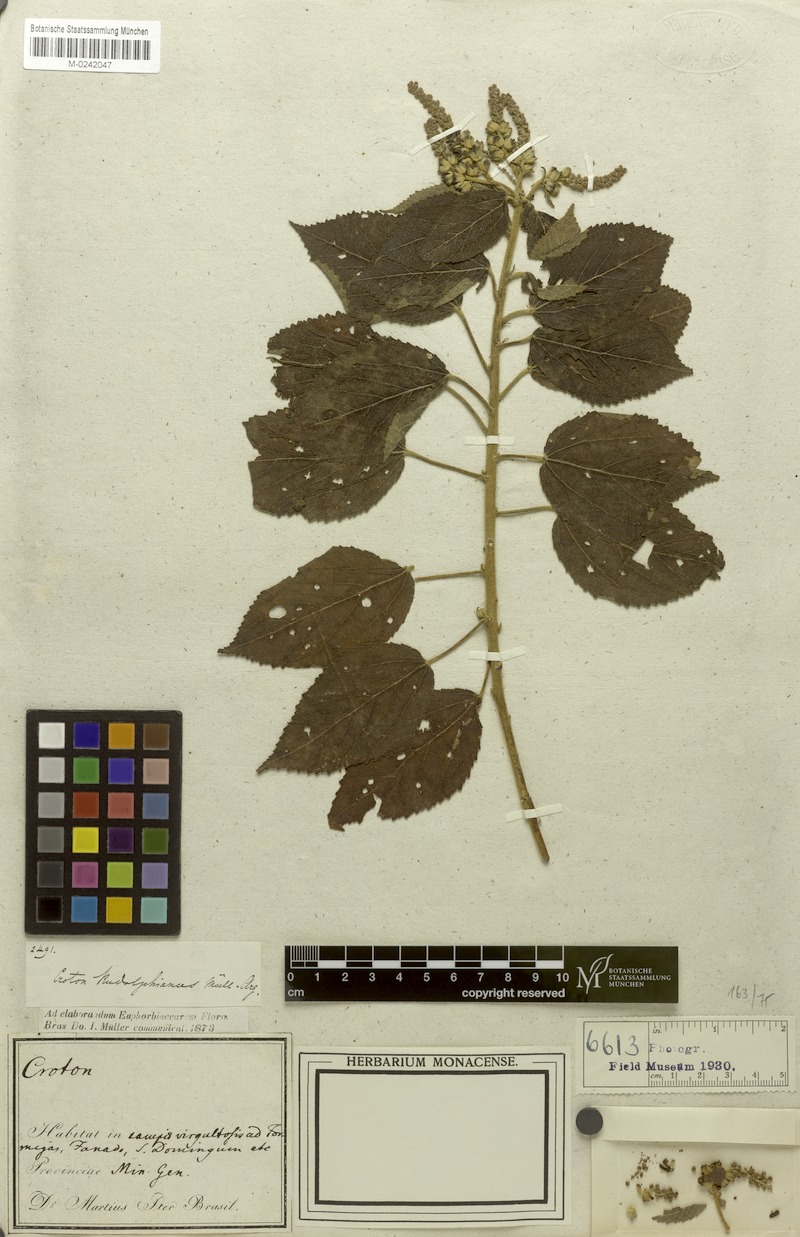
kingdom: Plantae
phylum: Tracheophyta
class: Magnoliopsida
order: Malpighiales
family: Euphorbiaceae
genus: Croton
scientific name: Croton rudolphianus
